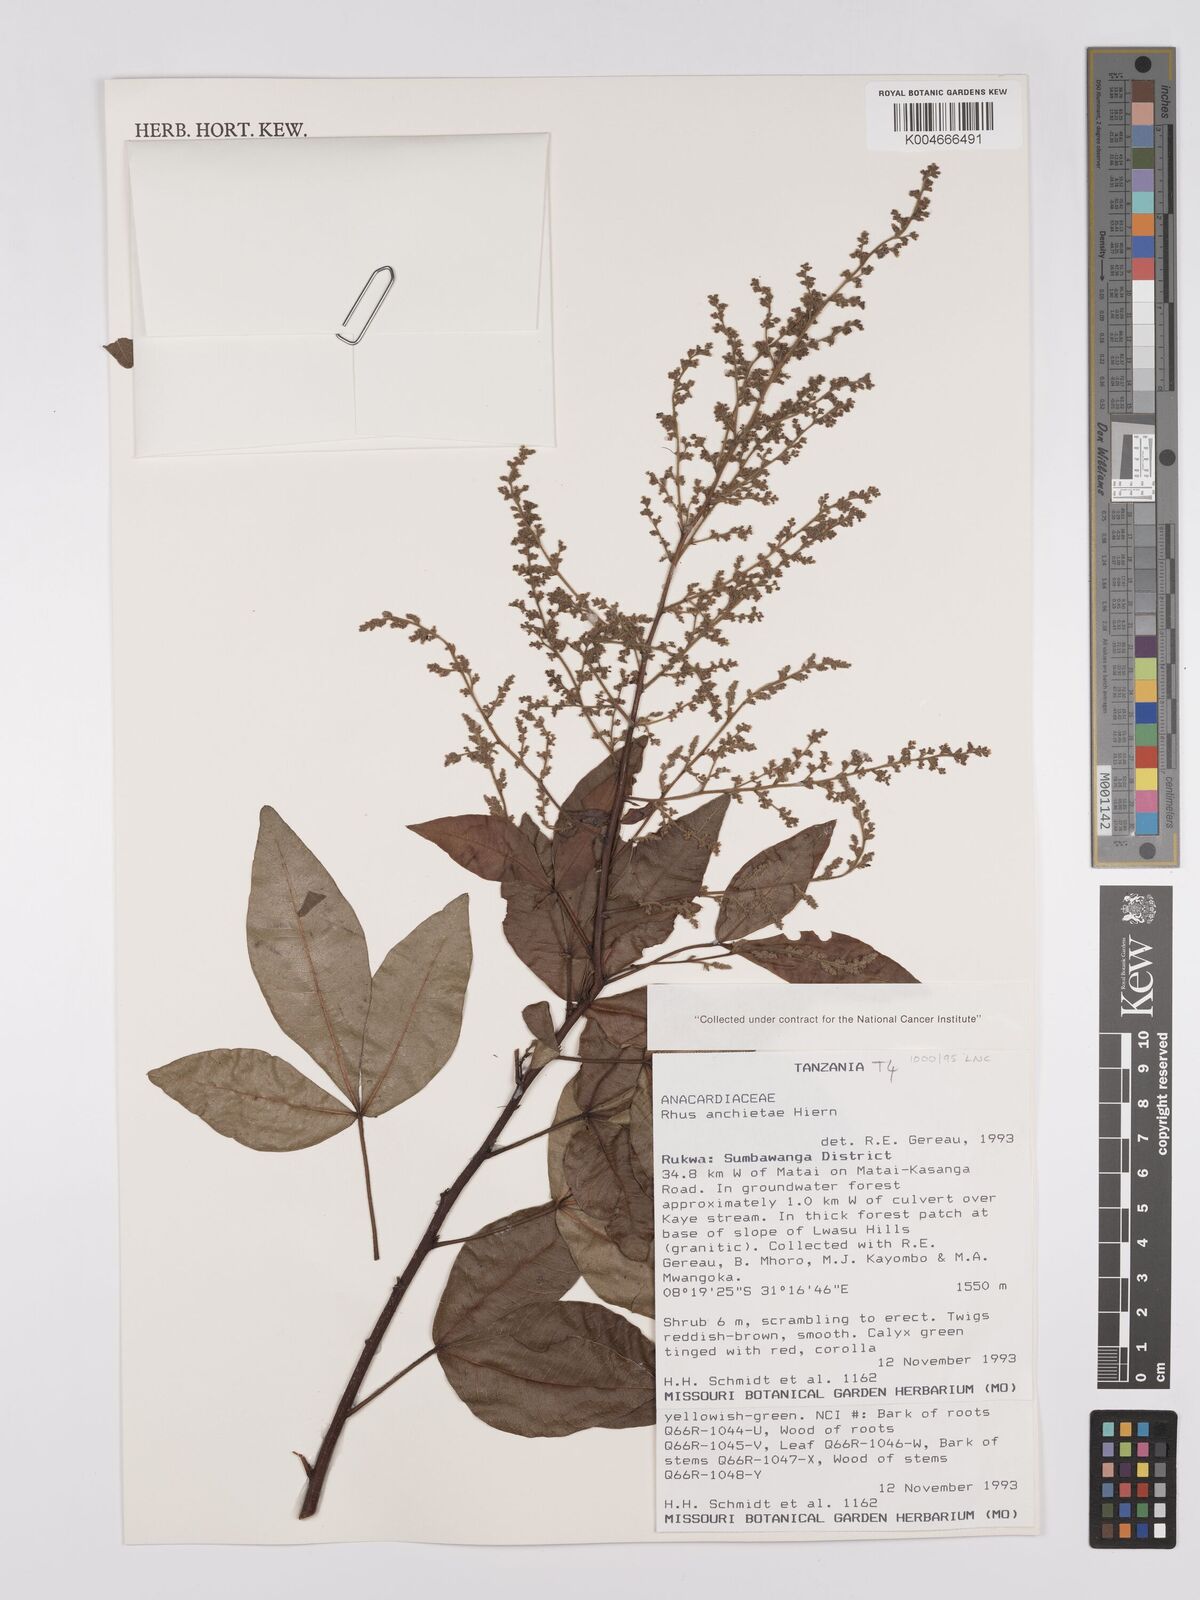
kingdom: Plantae
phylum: Tracheophyta
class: Magnoliopsida
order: Sapindales
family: Anacardiaceae
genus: Searsia
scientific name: Searsia anchietae
